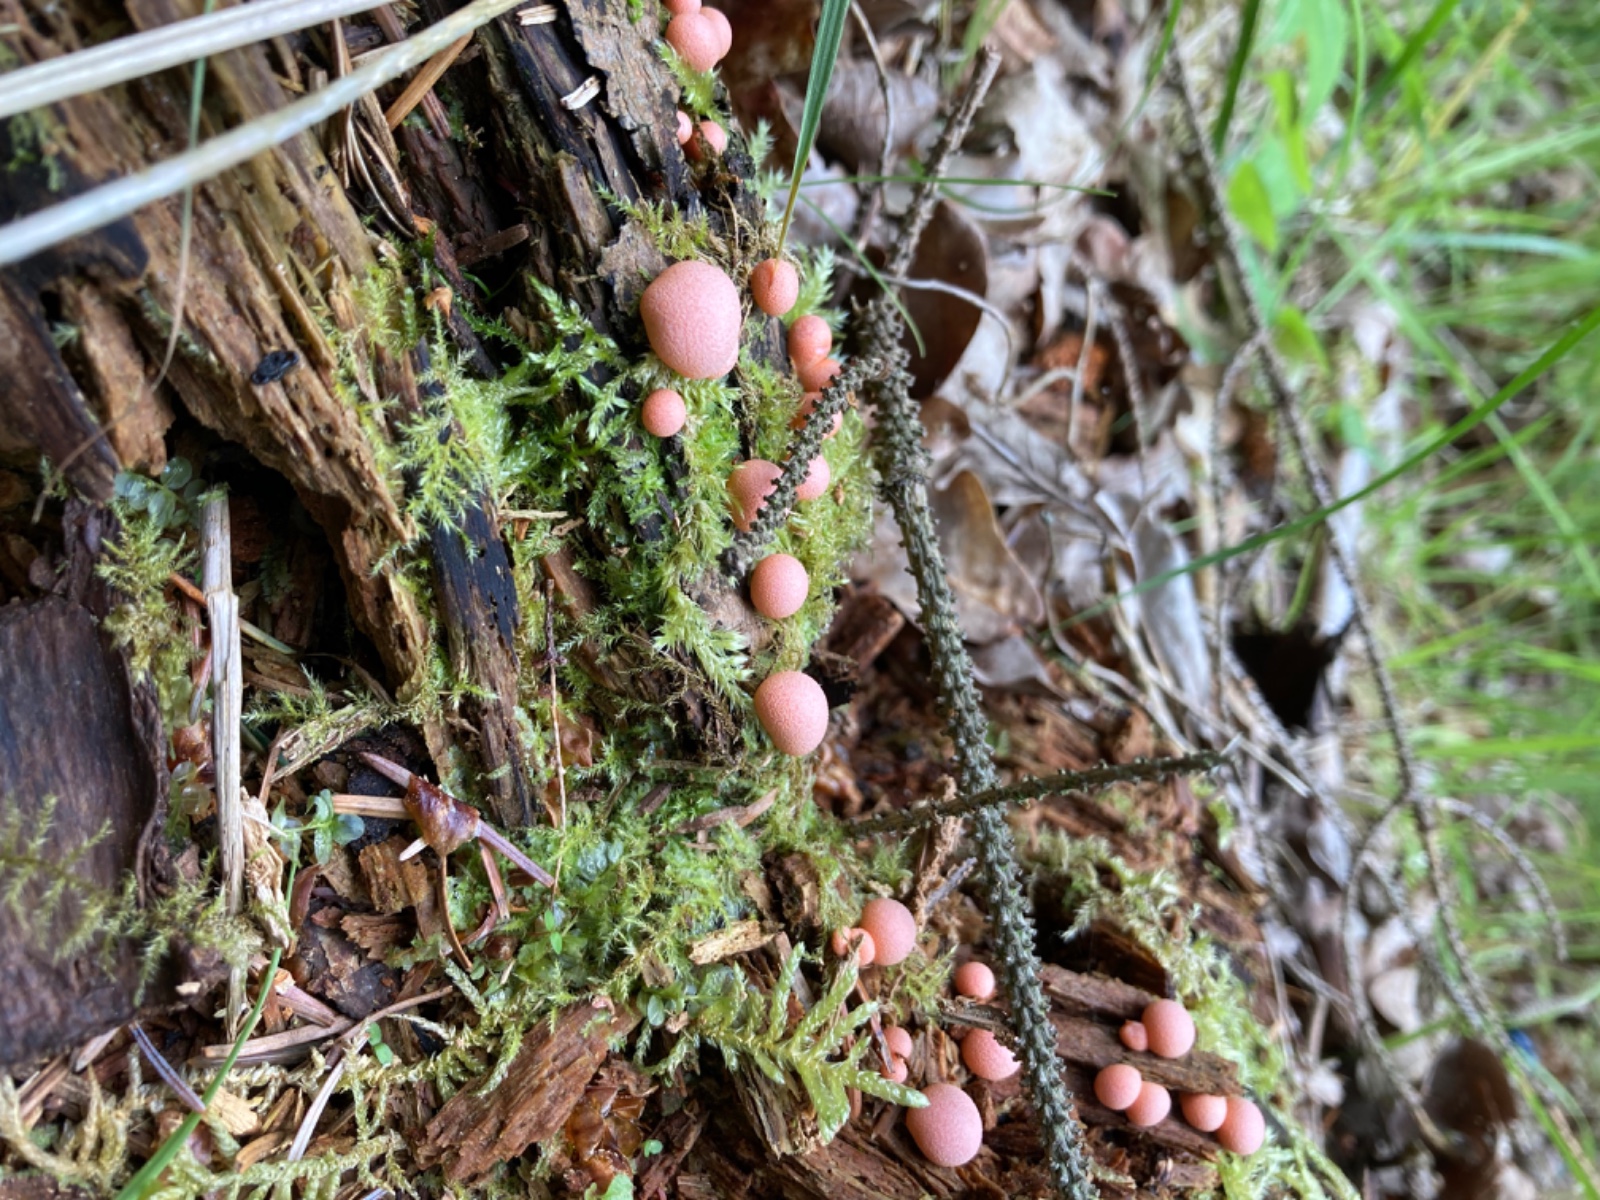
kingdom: Protozoa
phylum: Mycetozoa
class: Myxomycetes
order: Cribrariales
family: Tubiferaceae
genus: Lycogala
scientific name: Lycogala epidendrum
